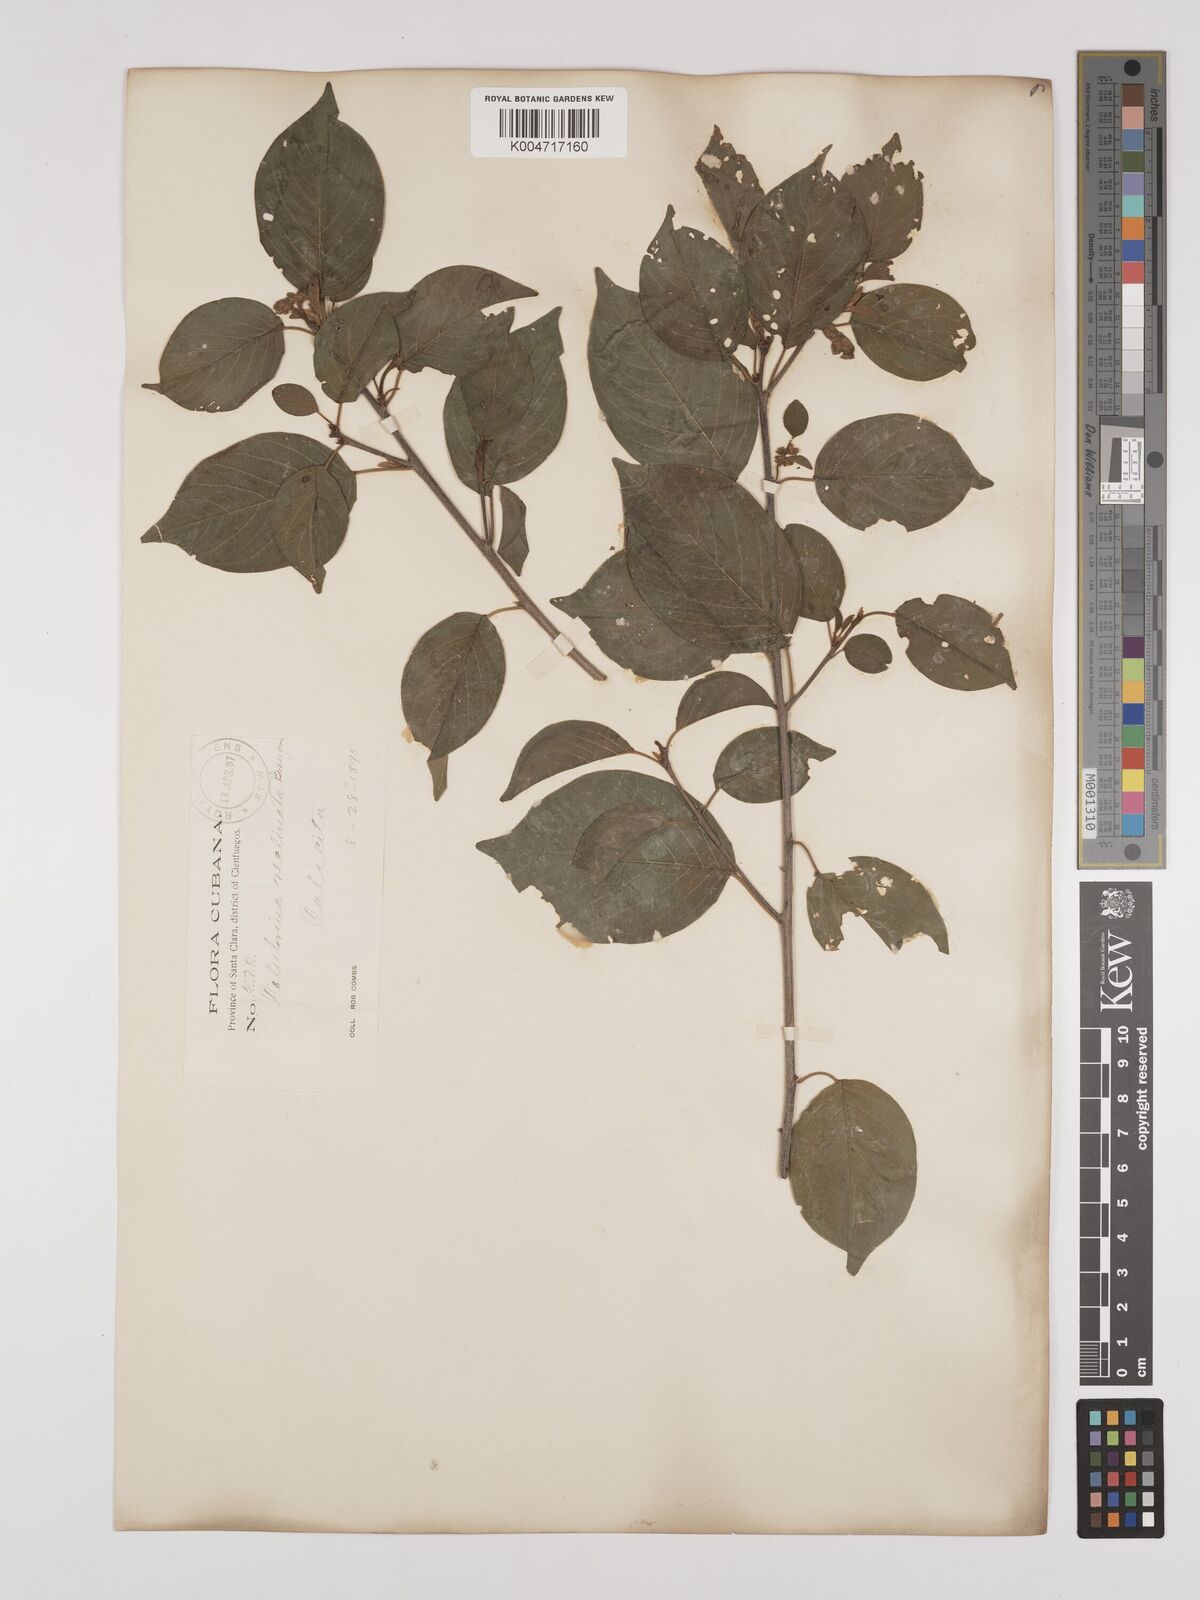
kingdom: Plantae
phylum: Tracheophyta
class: Magnoliopsida
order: Rosales
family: Rhamnaceae
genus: Colubrina
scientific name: Colubrina elliptica
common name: Soldierwood
